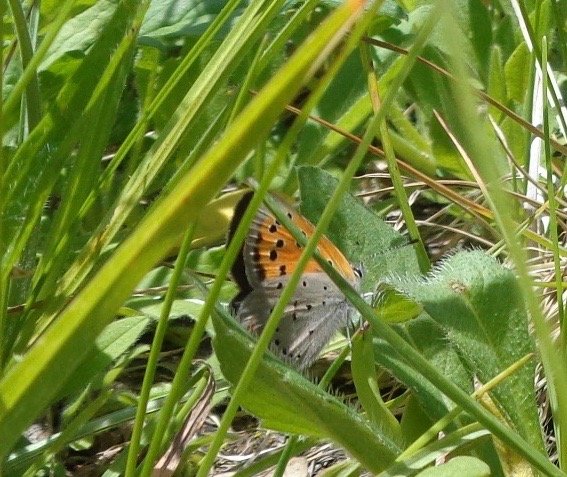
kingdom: Animalia
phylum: Arthropoda
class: Insecta
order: Lepidoptera
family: Lycaenidae
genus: Lycaena
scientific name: Lycaena phlaeas
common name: American Copper
